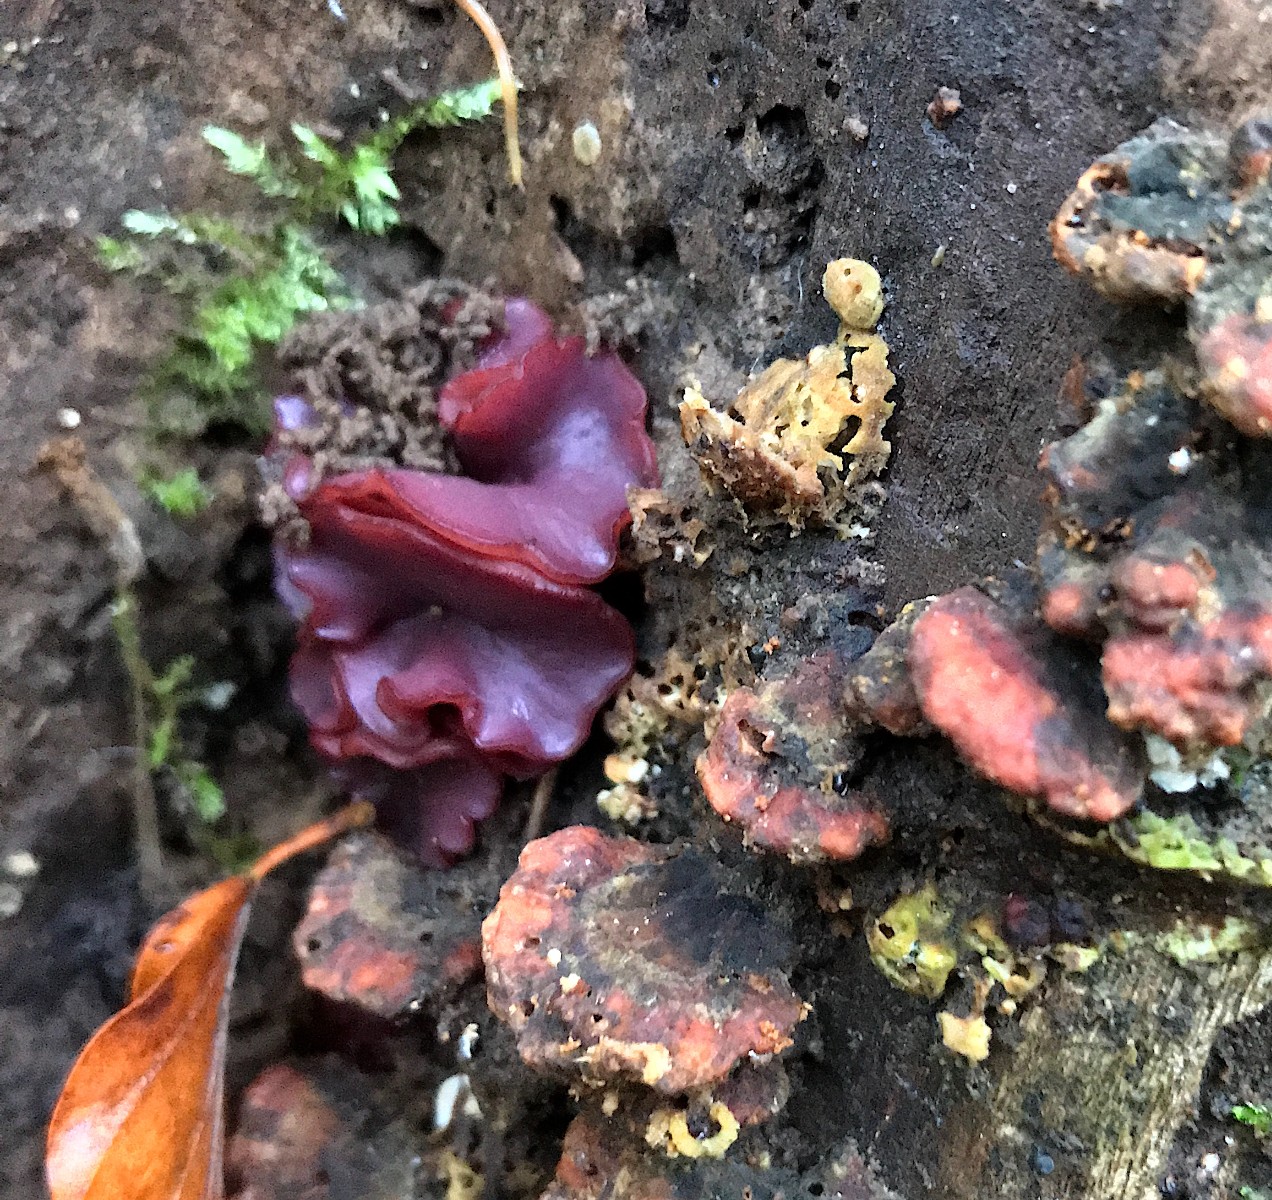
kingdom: Fungi
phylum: Ascomycota
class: Leotiomycetes
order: Helotiales
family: Gelatinodiscaceae
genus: Ascocoryne
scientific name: Ascocoryne cylichnium
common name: stor sejskive
